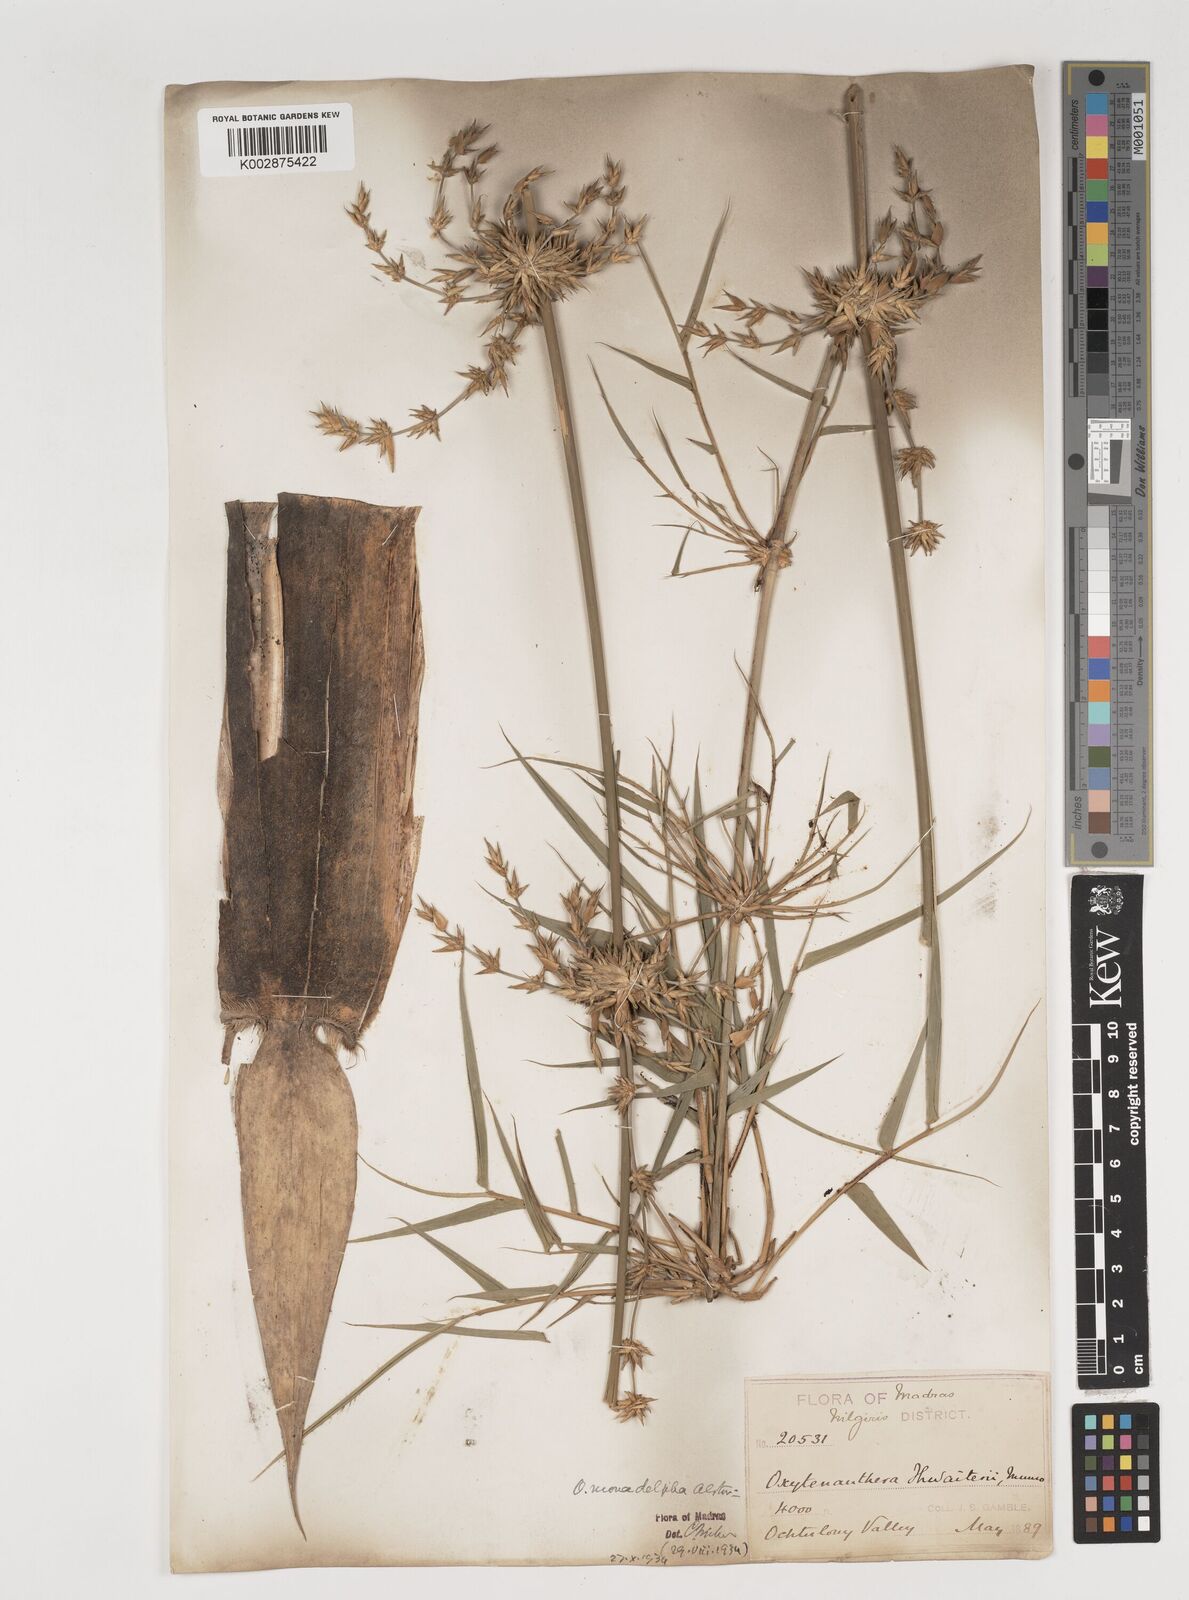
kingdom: Plantae
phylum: Tracheophyta
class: Liliopsida
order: Poales
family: Poaceae
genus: Pseudoxytenanthera
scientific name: Pseudoxytenanthera monadelpha
